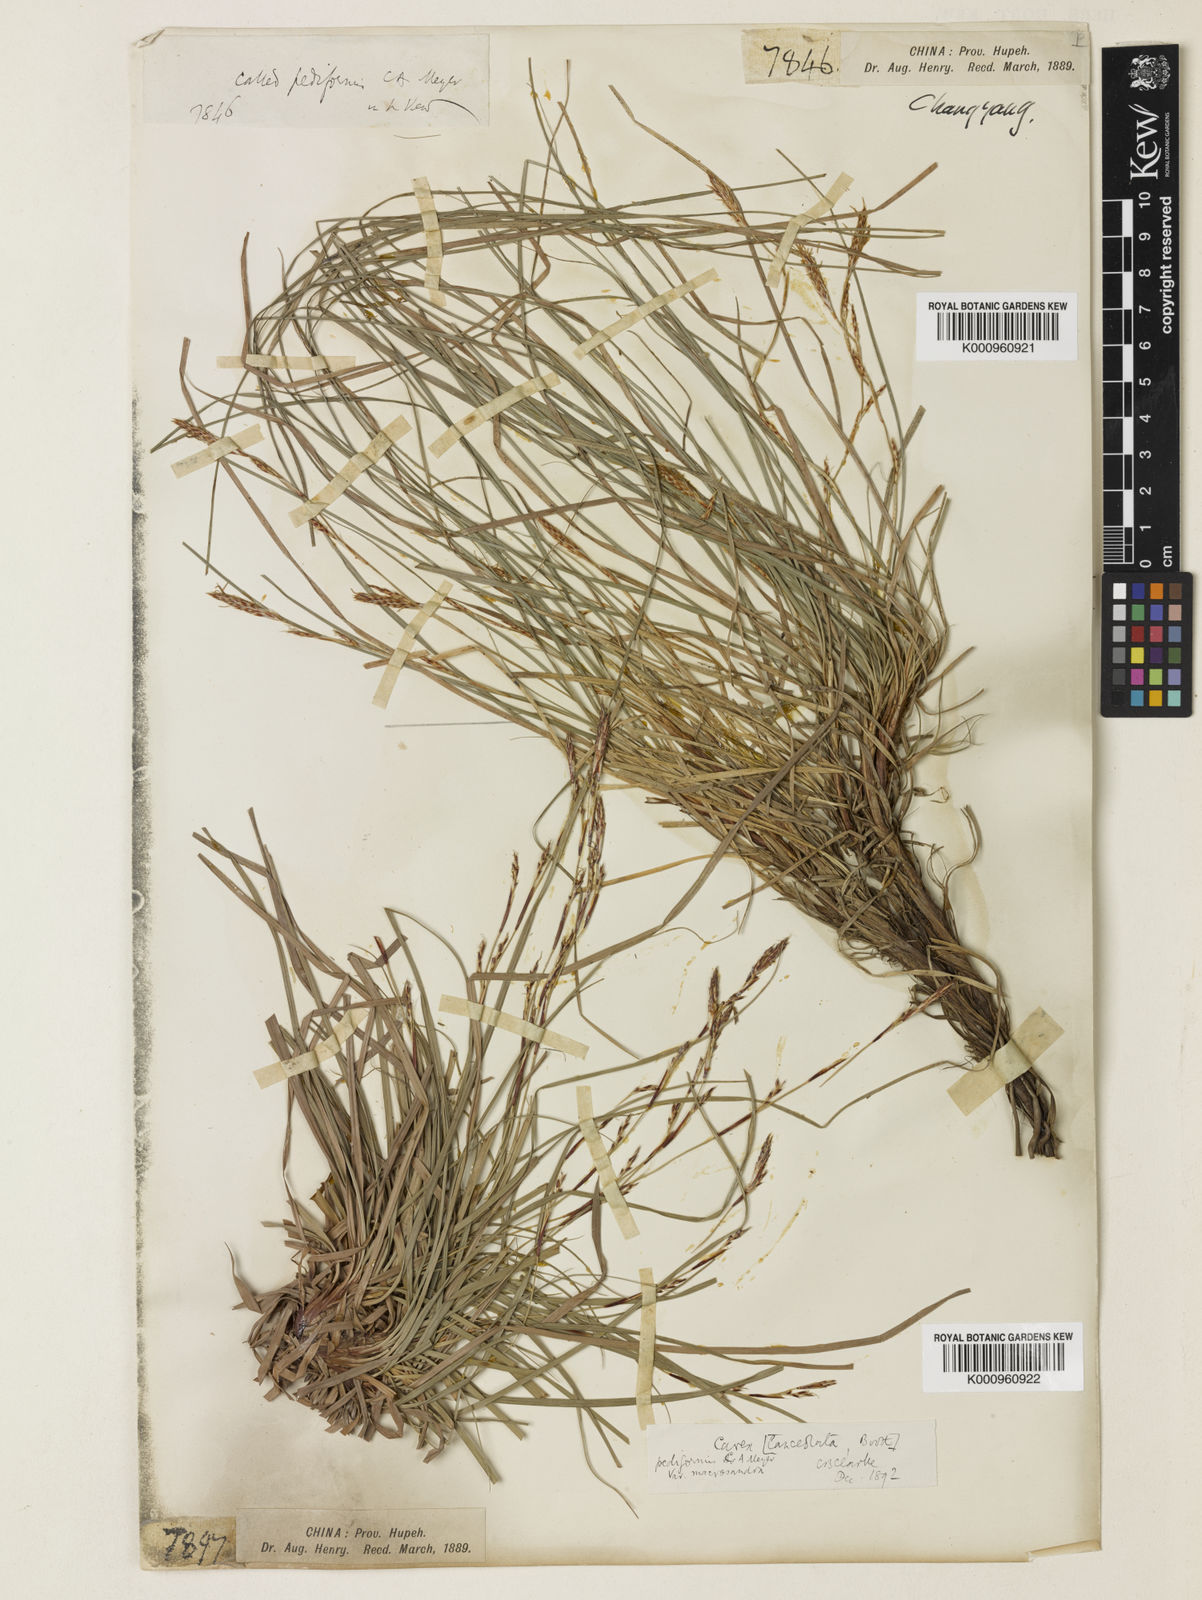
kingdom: Plantae
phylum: Tracheophyta
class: Liliopsida
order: Poales
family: Cyperaceae
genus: Carex
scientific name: Carex lanceolata
